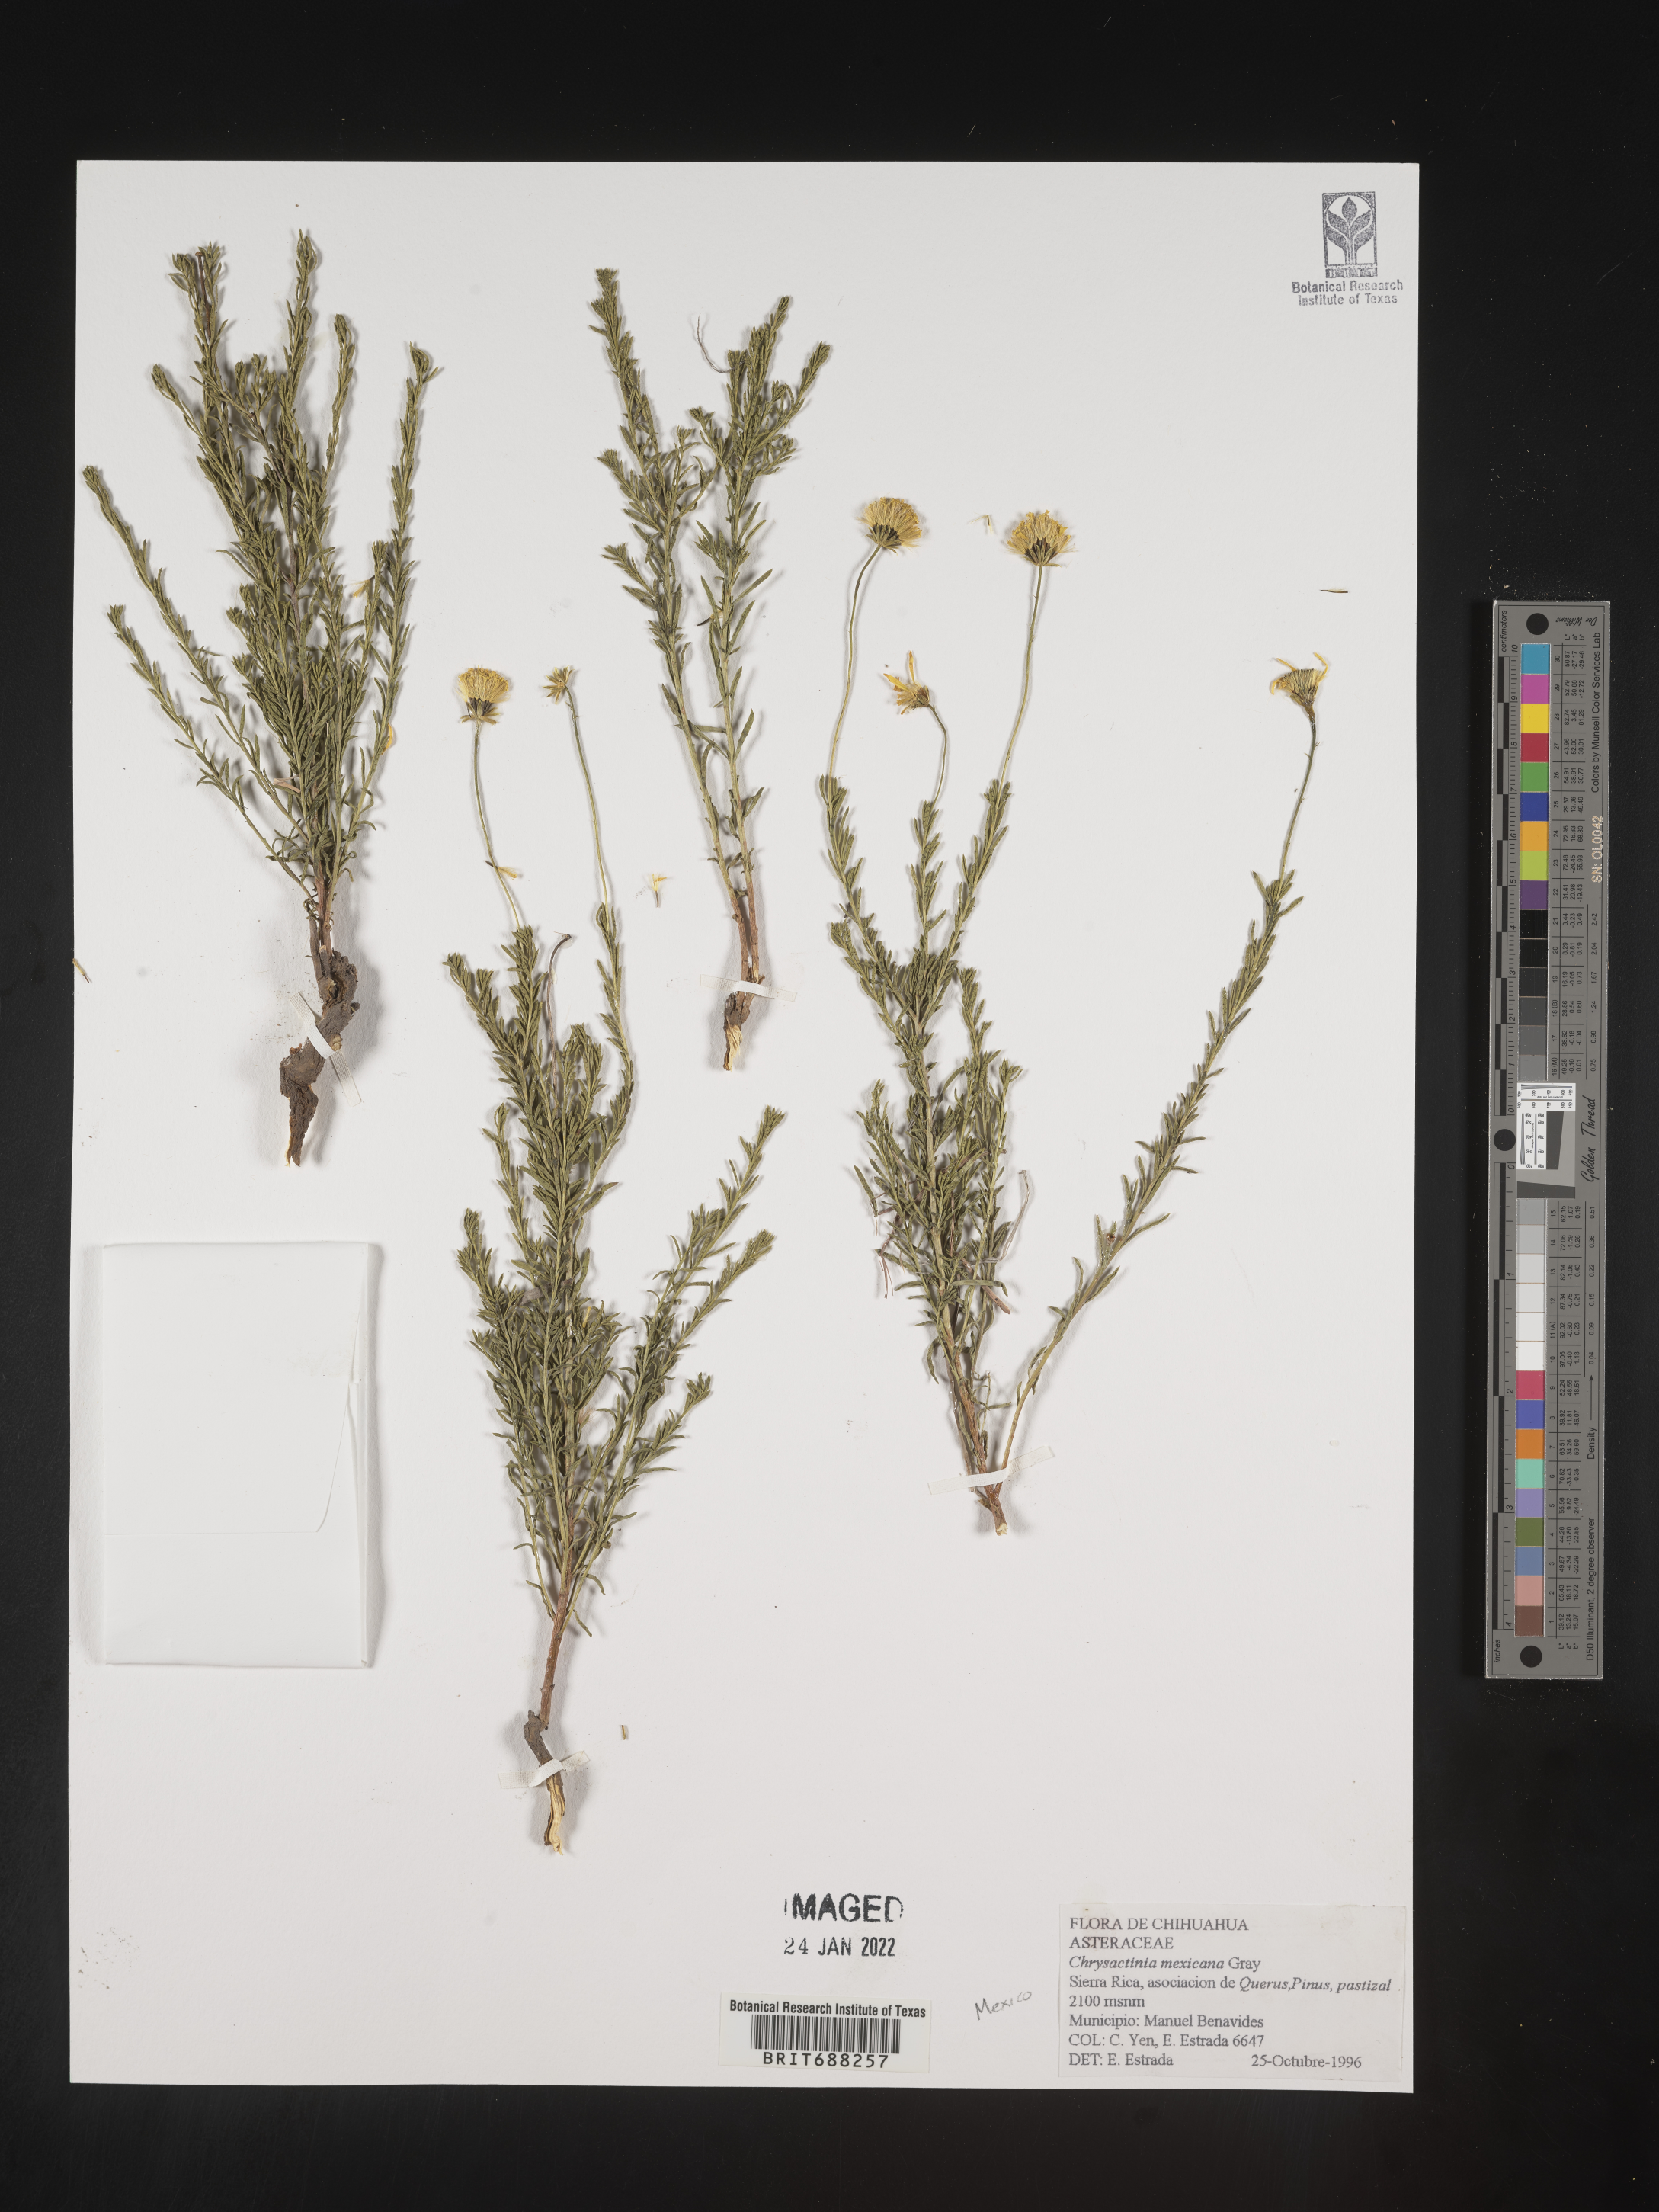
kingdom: Plantae
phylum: Tracheophyta
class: Magnoliopsida
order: Asterales
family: Asteraceae
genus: Chrysactinia
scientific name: Chrysactinia
